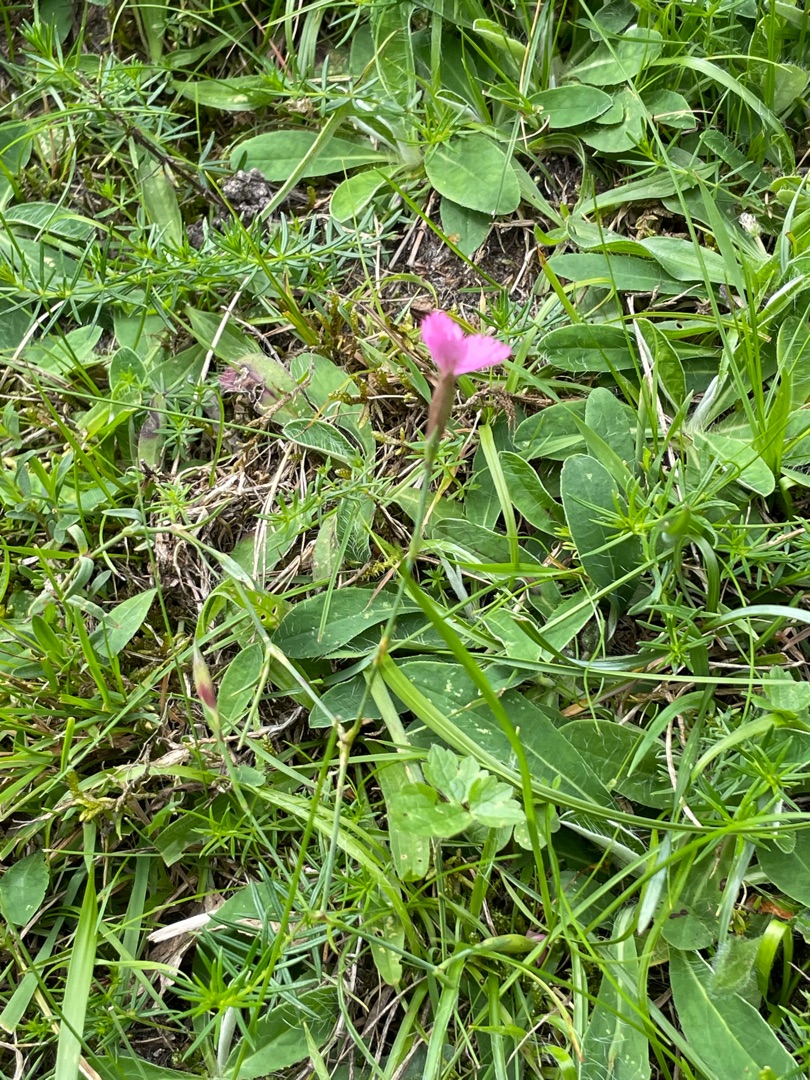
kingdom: Plantae
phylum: Tracheophyta
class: Magnoliopsida
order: Caryophyllales
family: Caryophyllaceae
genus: Dianthus
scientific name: Dianthus deltoides
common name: Bakke-nellike
